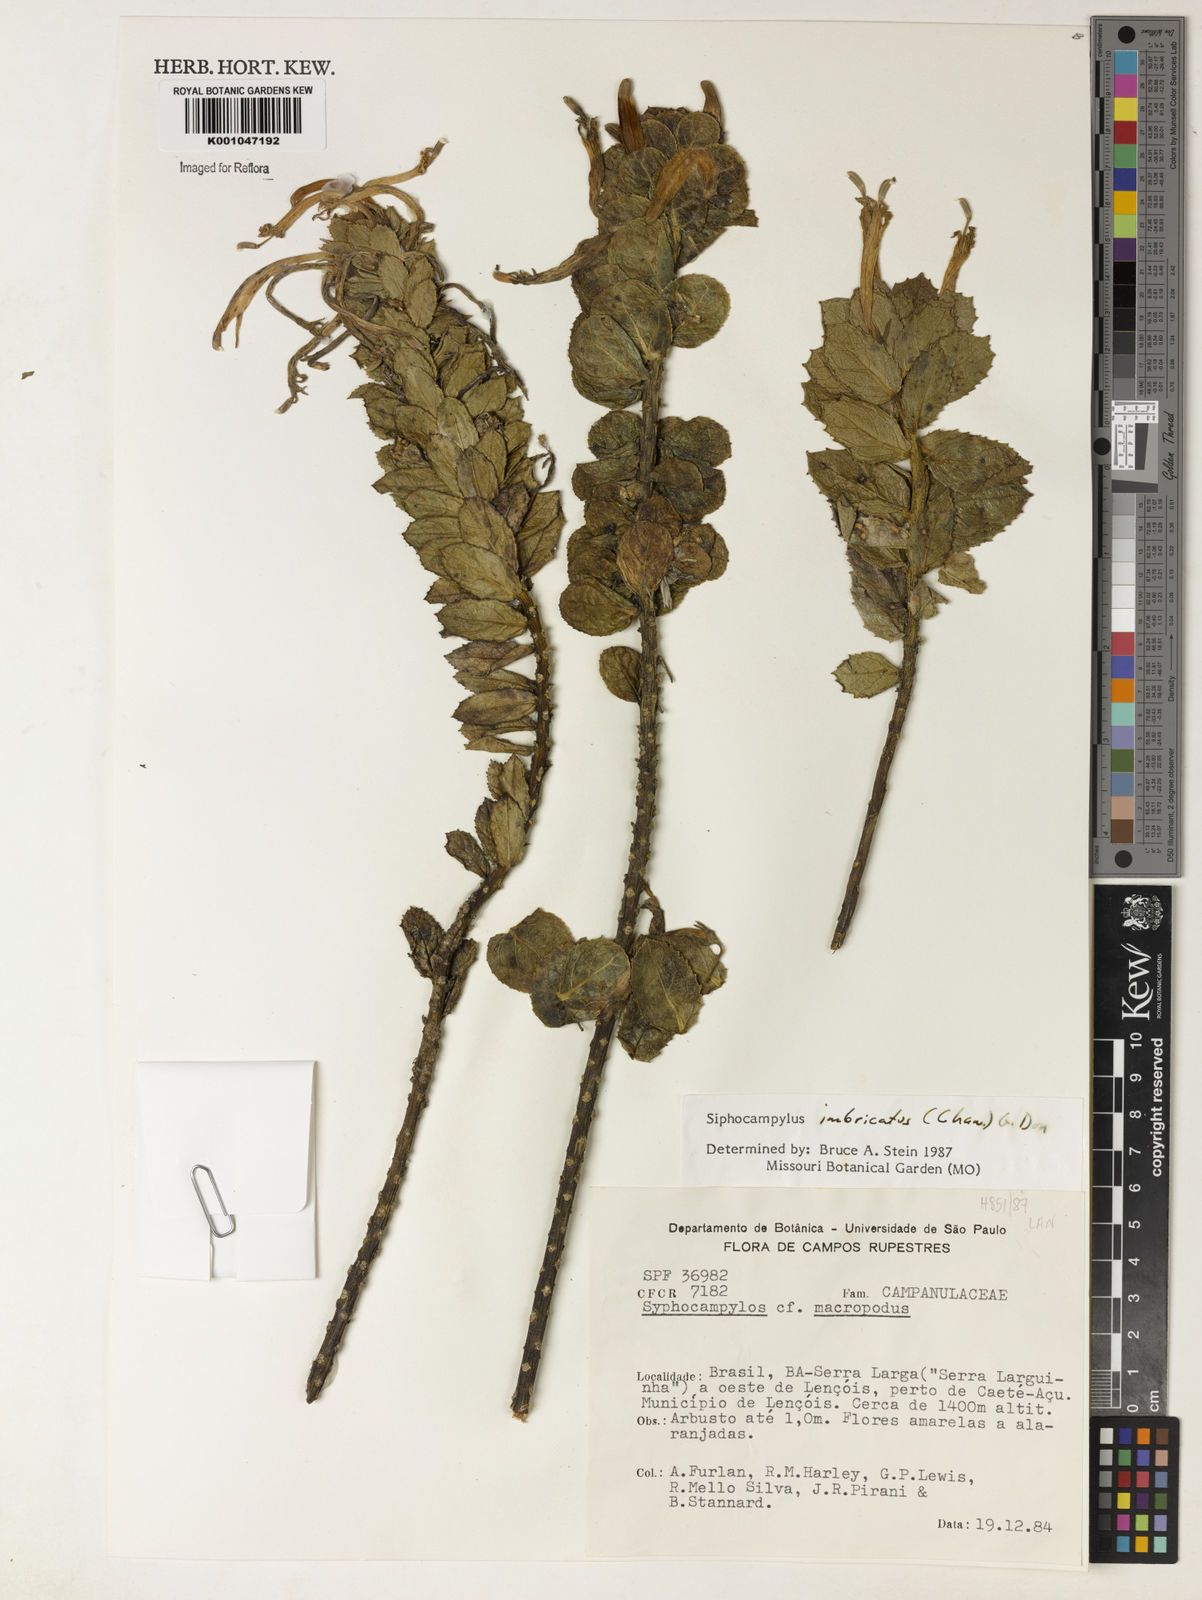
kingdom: Plantae
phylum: Tracheophyta
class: Magnoliopsida
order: Asterales
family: Campanulaceae
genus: Siphocampylus
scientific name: Siphocampylus imbricatus
